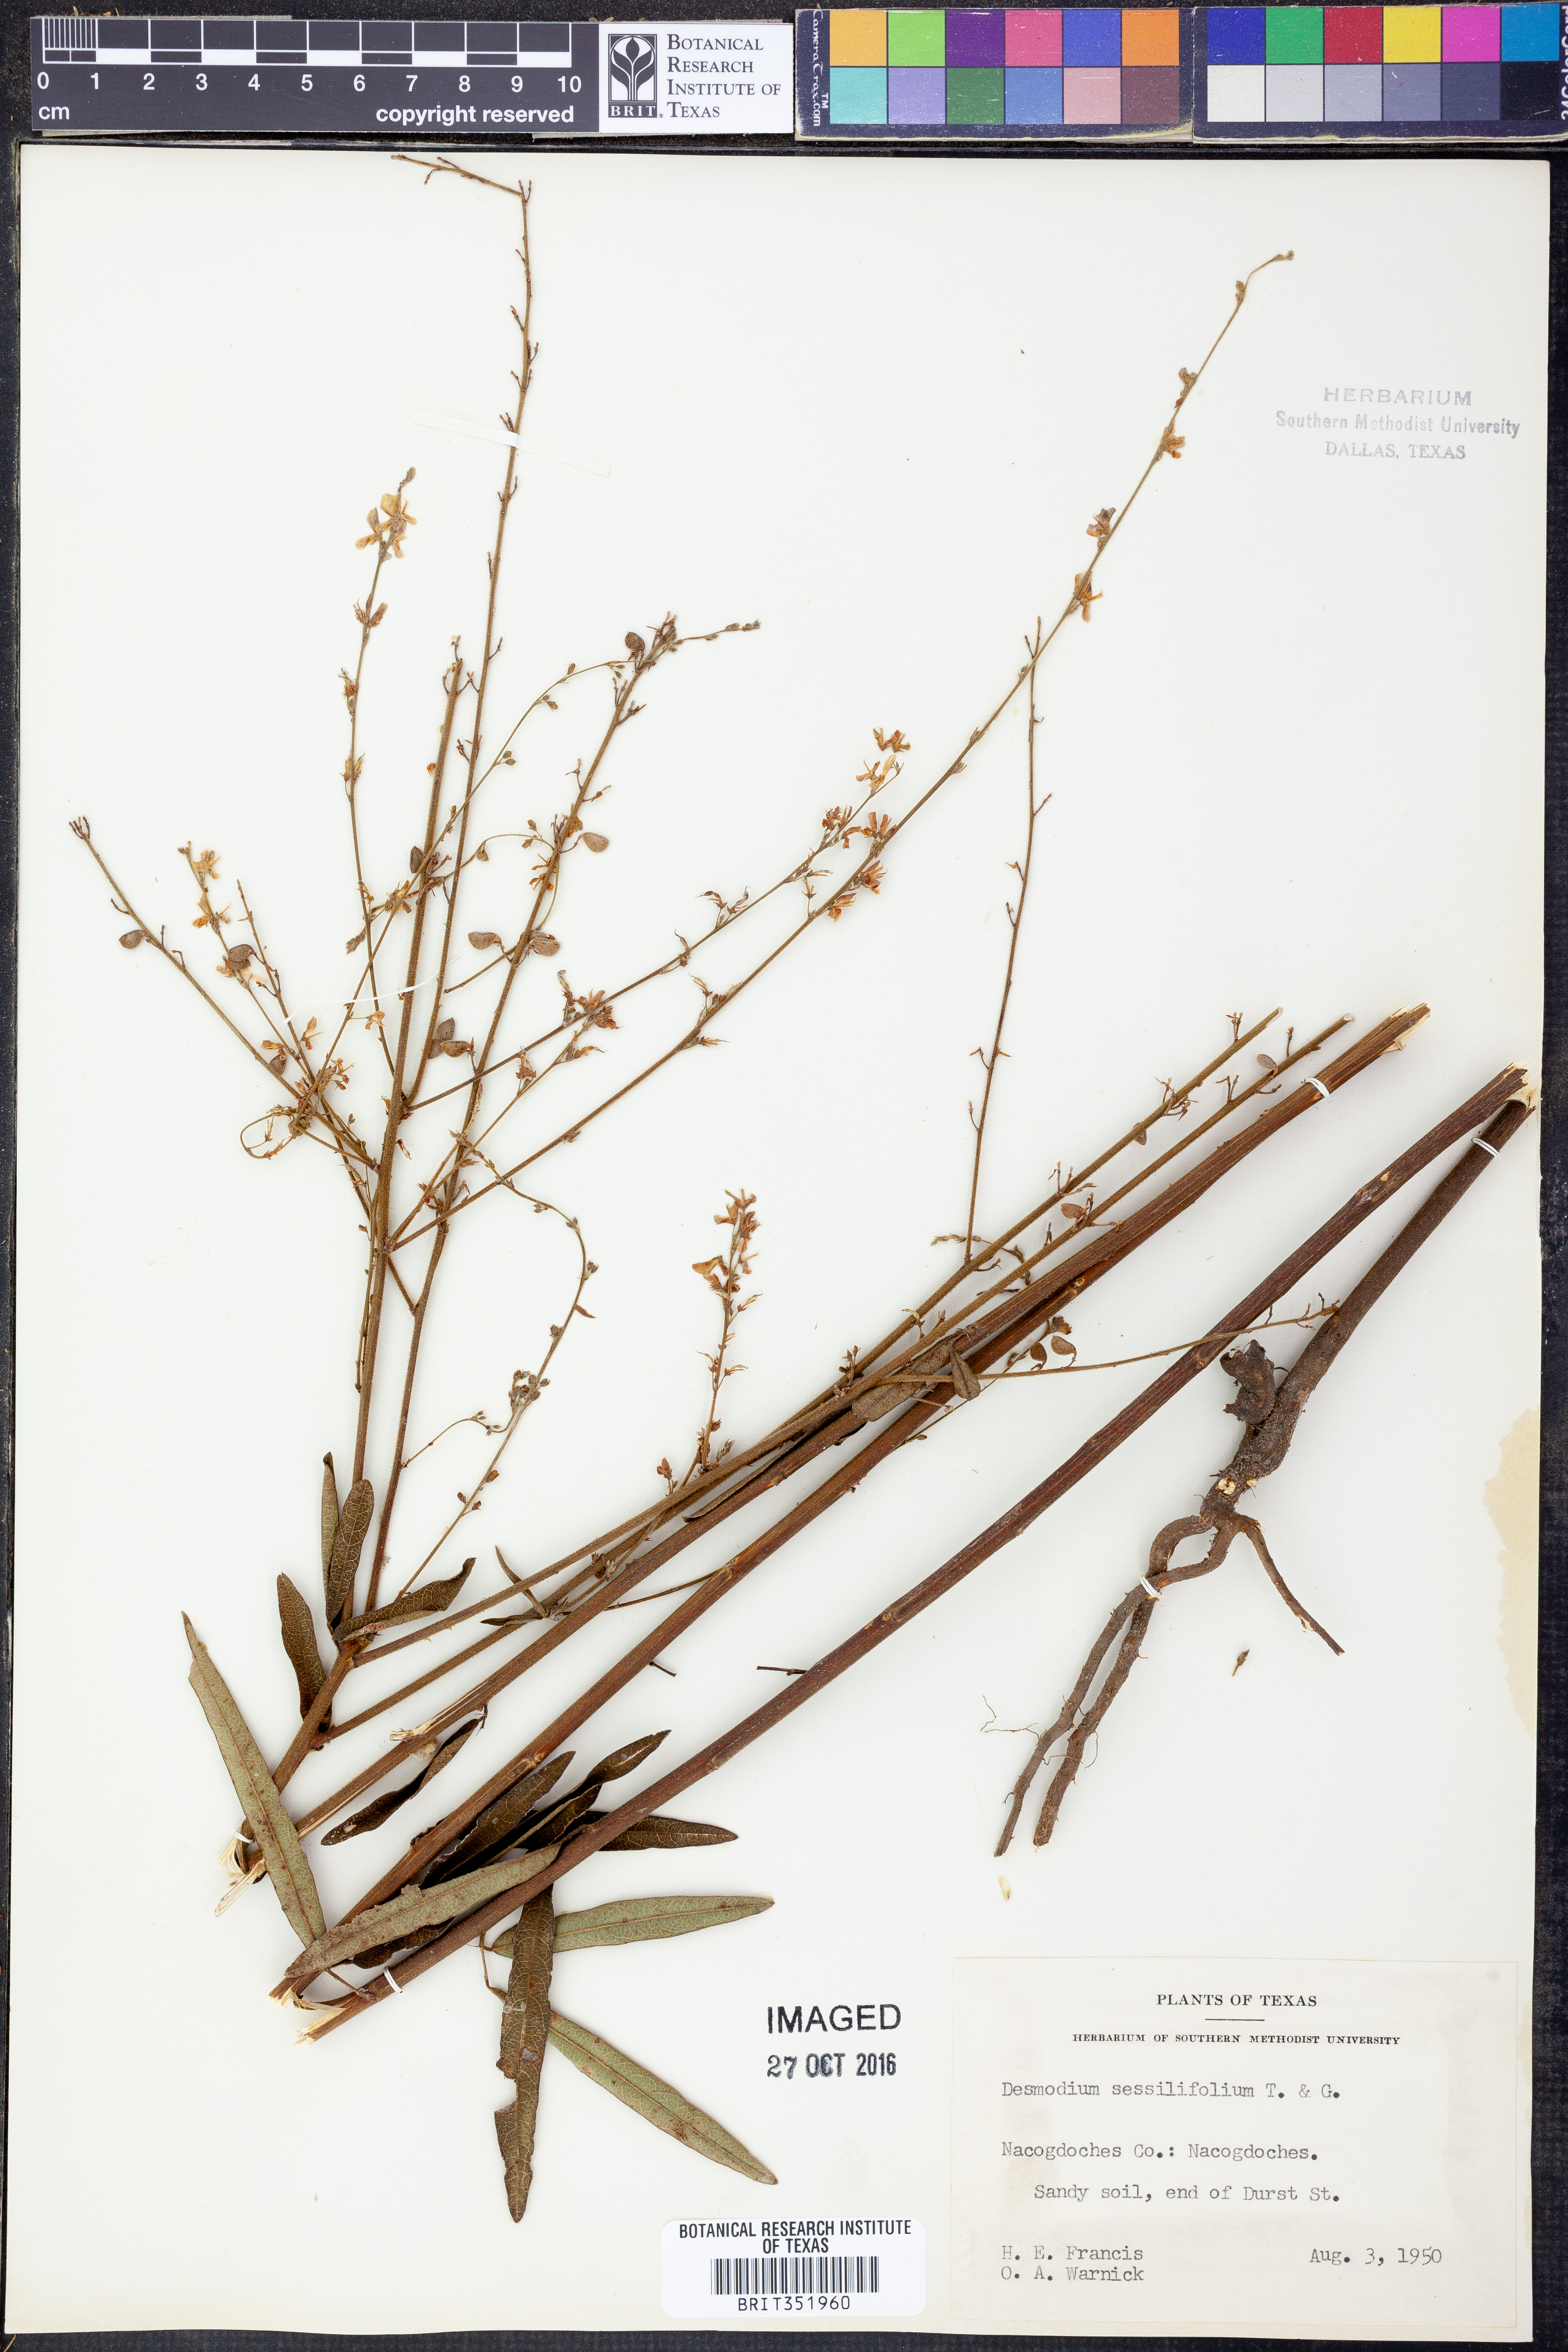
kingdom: Plantae
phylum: Tracheophyta
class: Magnoliopsida
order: Fabales
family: Fabaceae
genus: Desmodium
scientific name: Desmodium sessilifolium
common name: Sessile tick-clover
